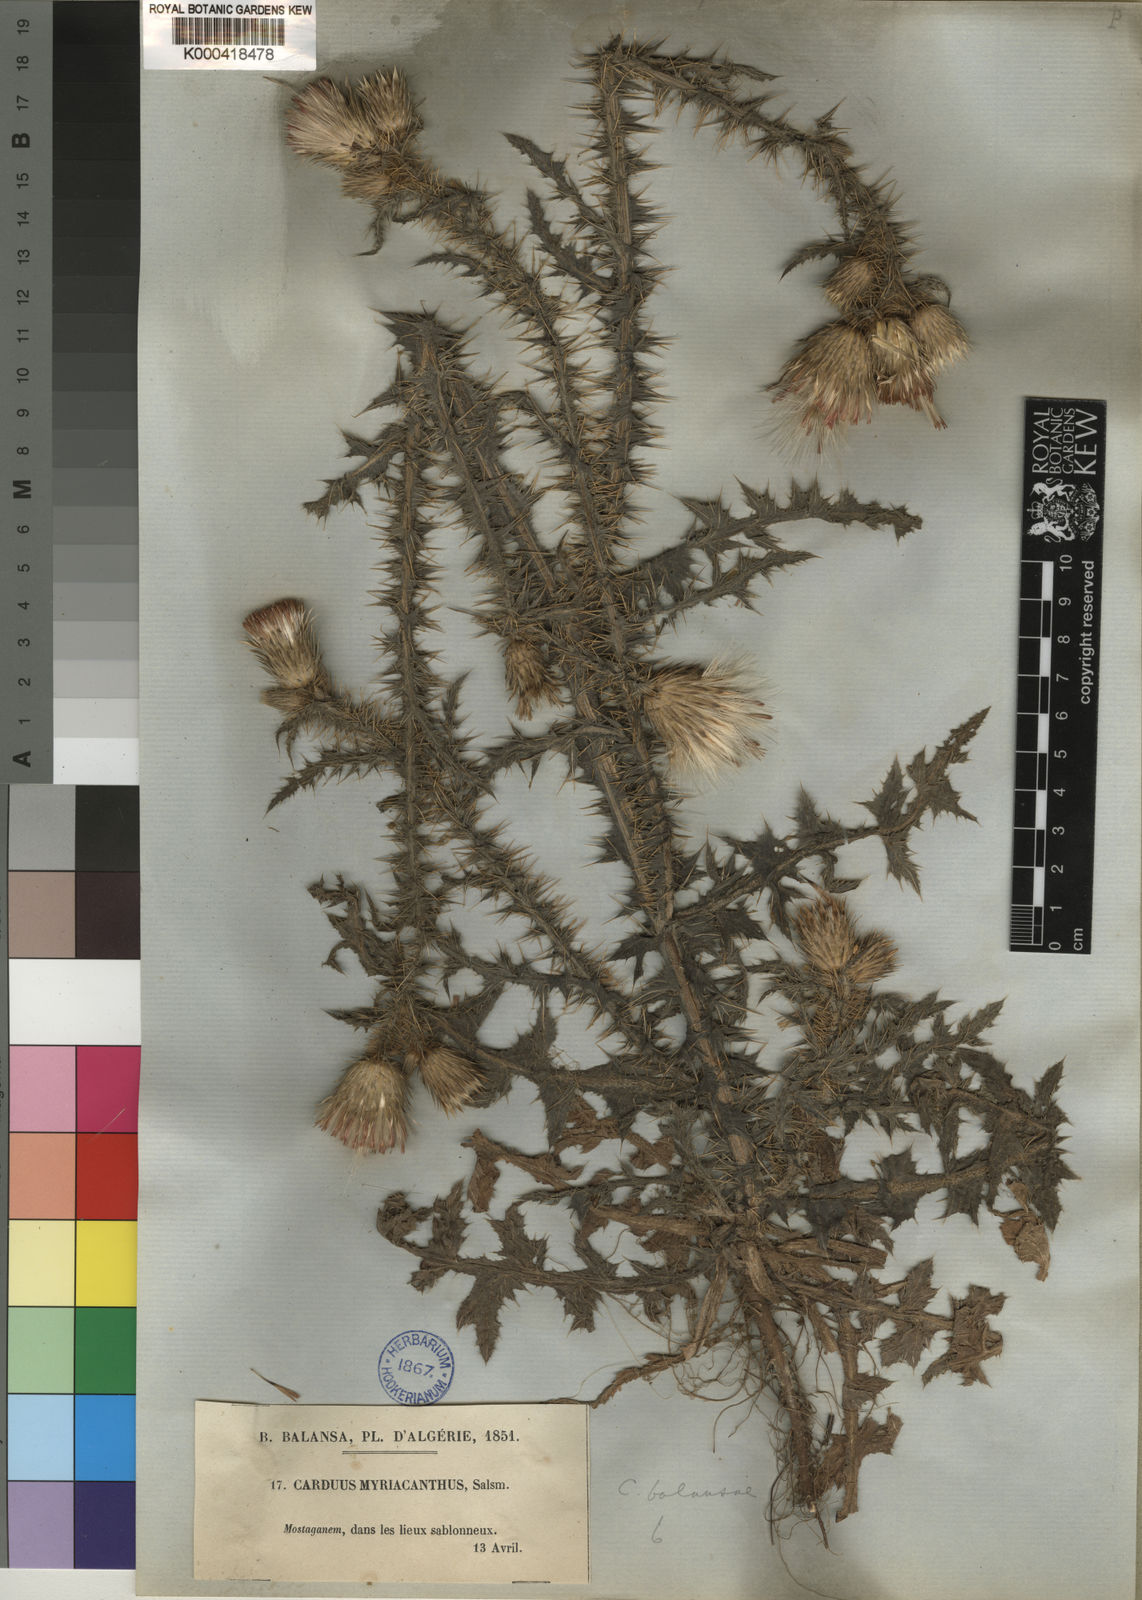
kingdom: Plantae
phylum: Tracheophyta
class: Magnoliopsida
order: Asterales
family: Asteraceae
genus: Carduus
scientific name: Carduus myriacanthus
